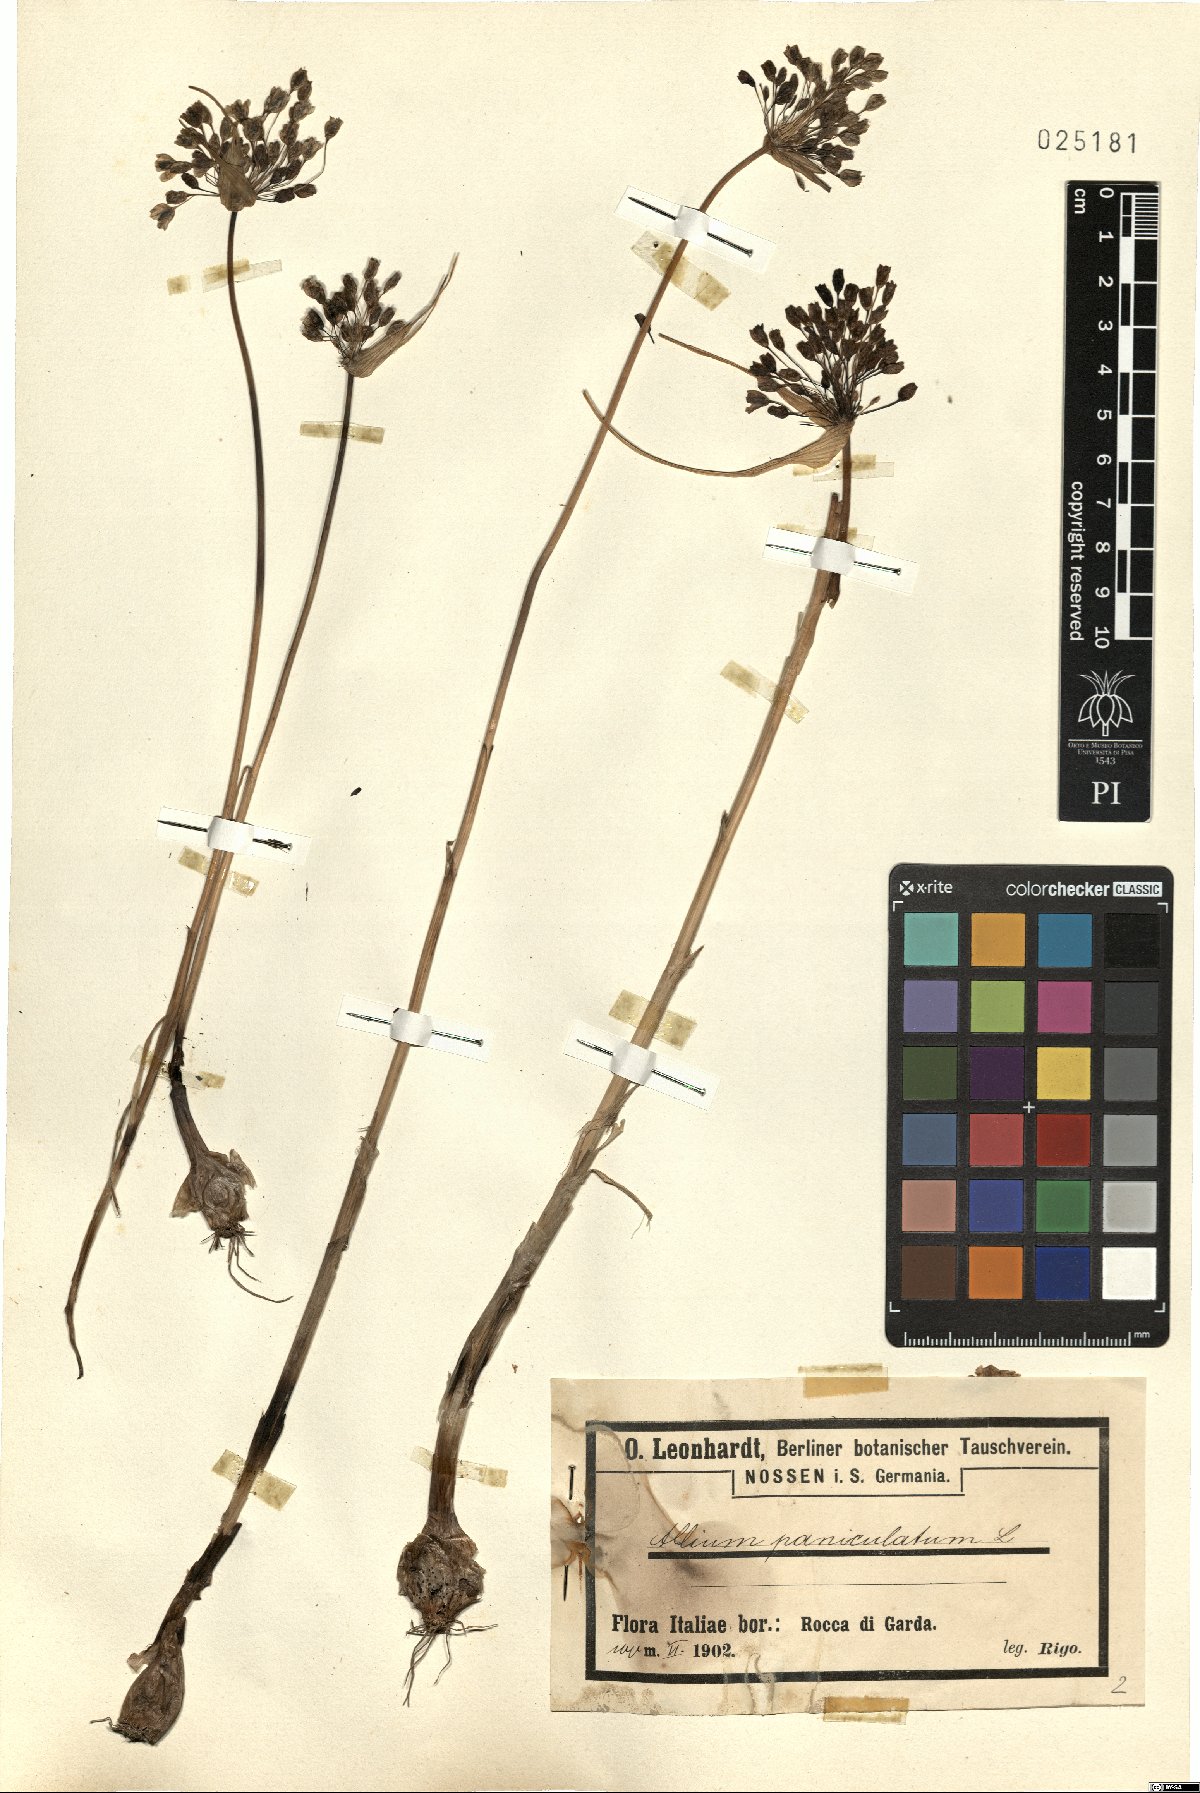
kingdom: Plantae
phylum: Tracheophyta
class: Liliopsida
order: Asparagales
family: Amaryllidaceae
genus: Allium
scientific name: Allium paniculatum
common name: Pale garlic
